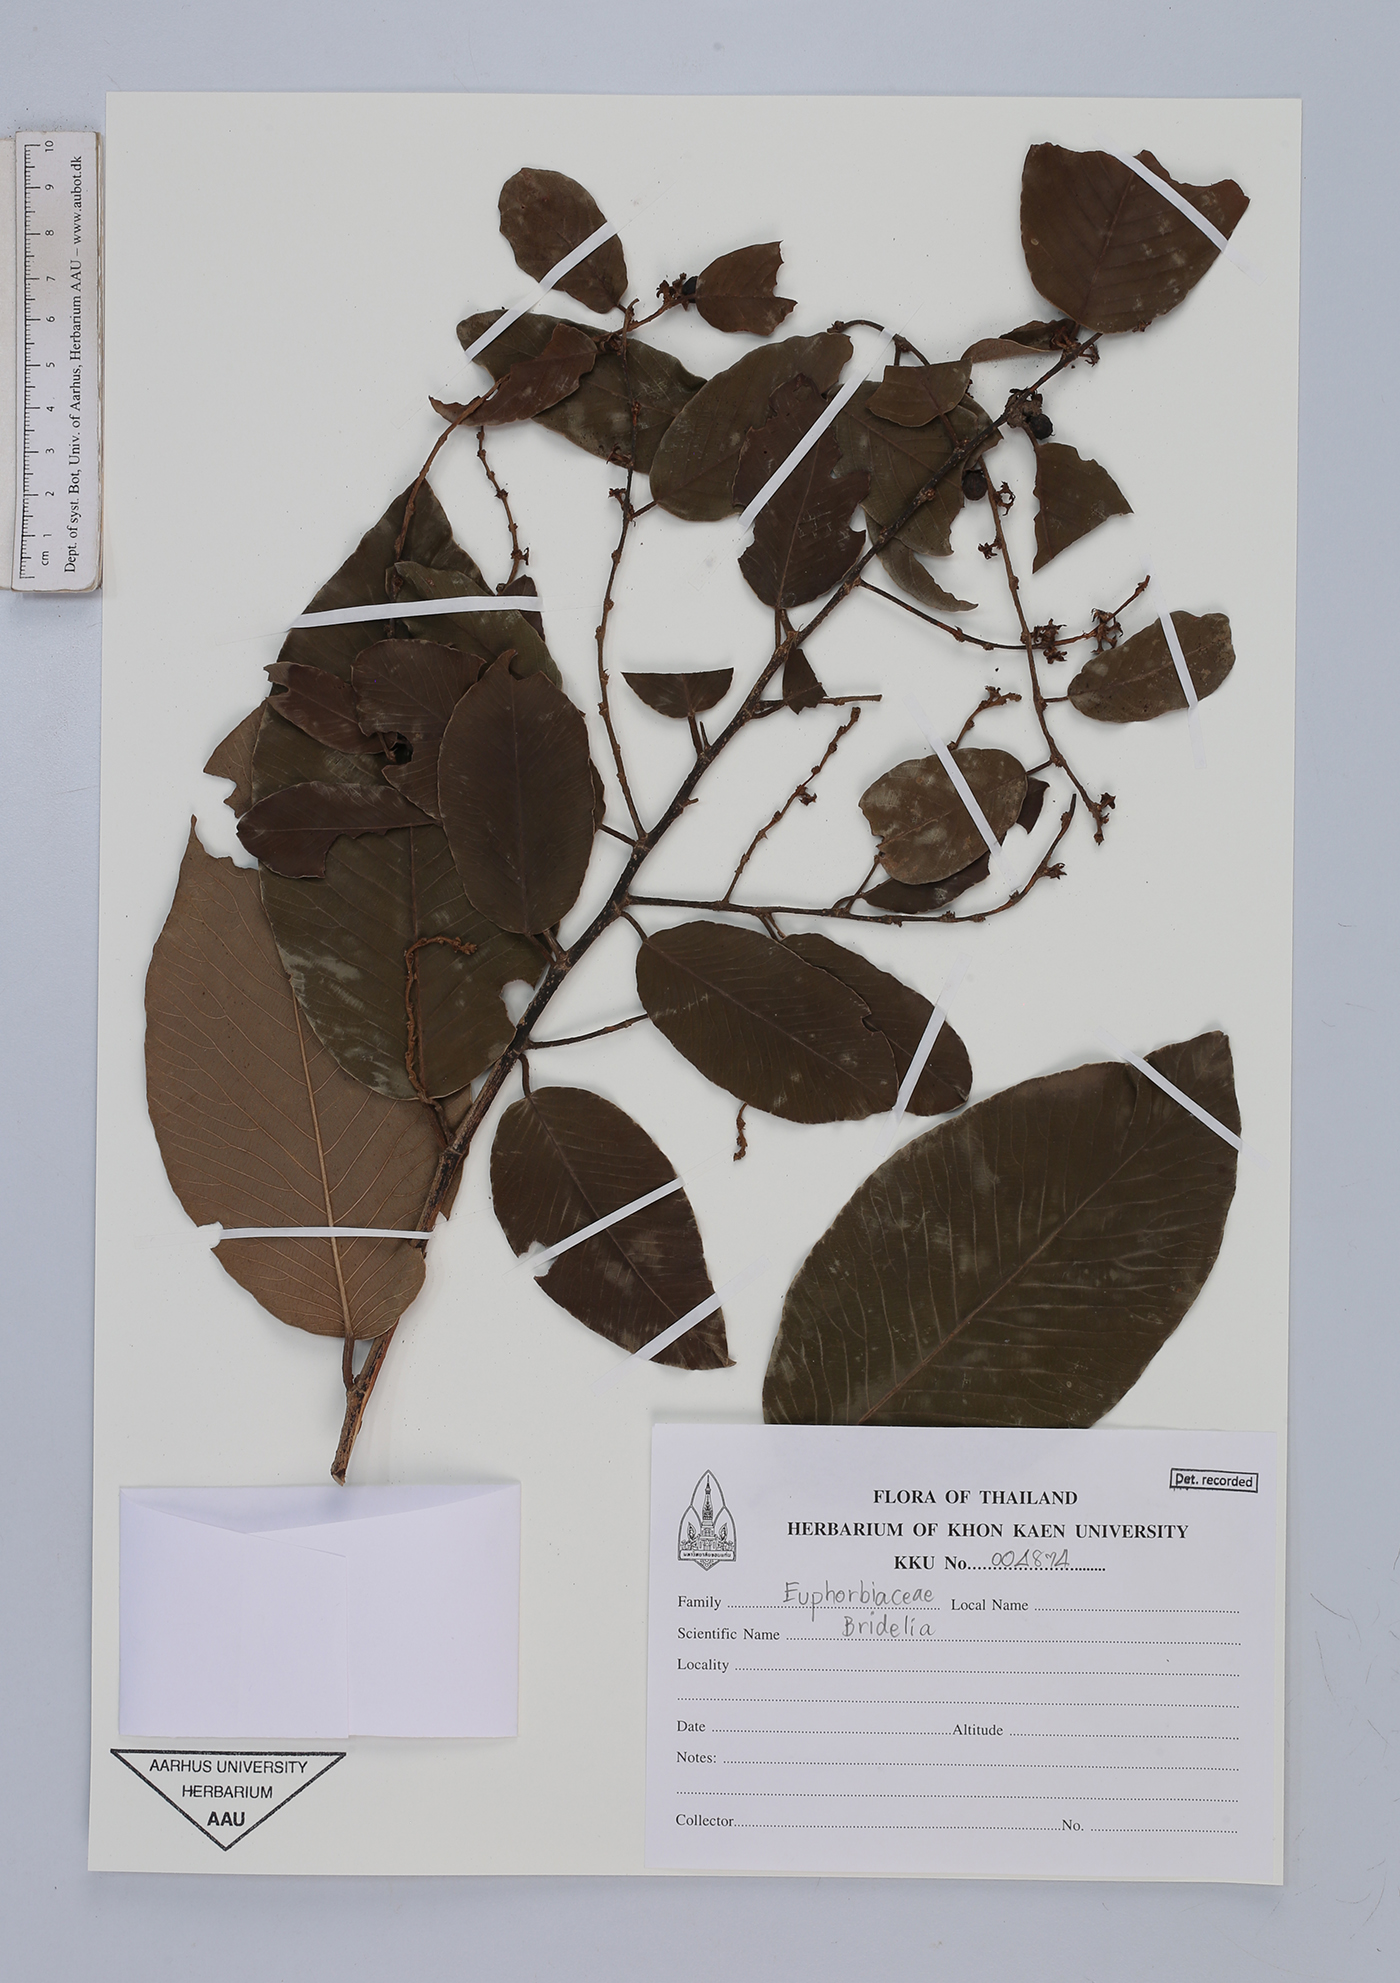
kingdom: Plantae
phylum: Tracheophyta
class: Magnoliopsida
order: Malpighiales
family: Euphorbiaceae
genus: Bridelia
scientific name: Bridelia
